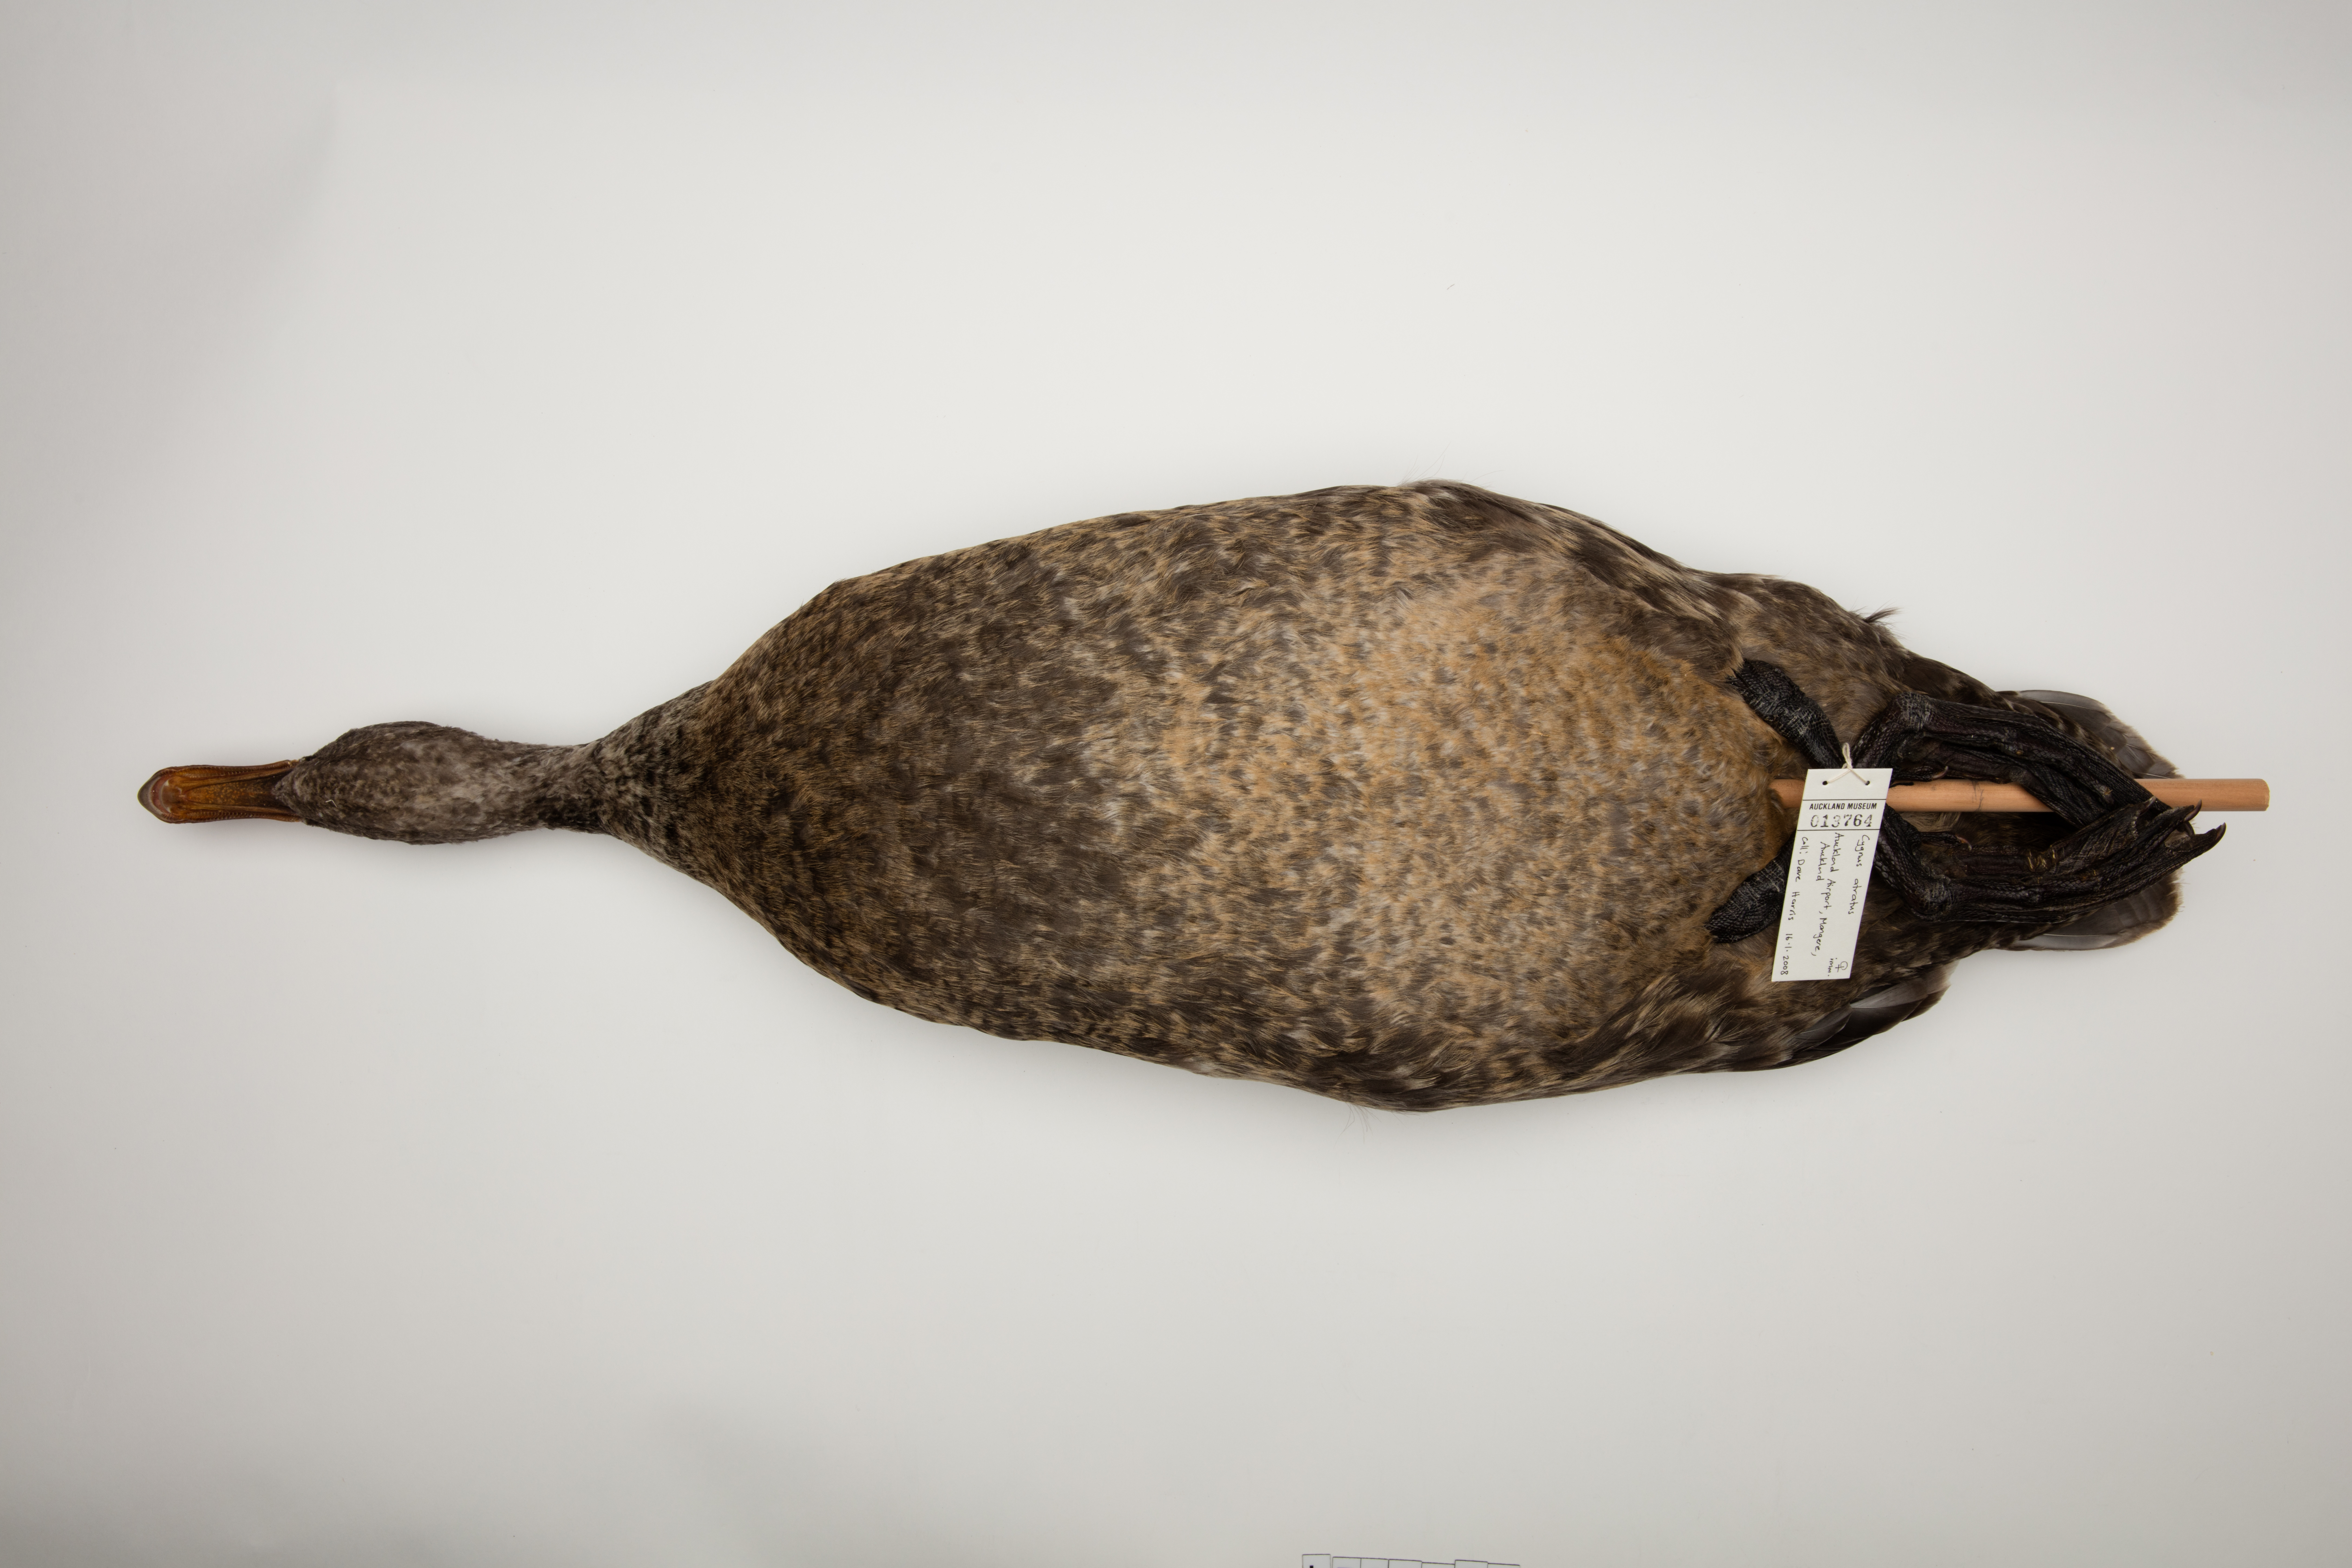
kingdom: Animalia
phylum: Chordata
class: Aves
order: Anseriformes
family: Anatidae
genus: Cygnus
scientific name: Cygnus atratus
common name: Black swan
